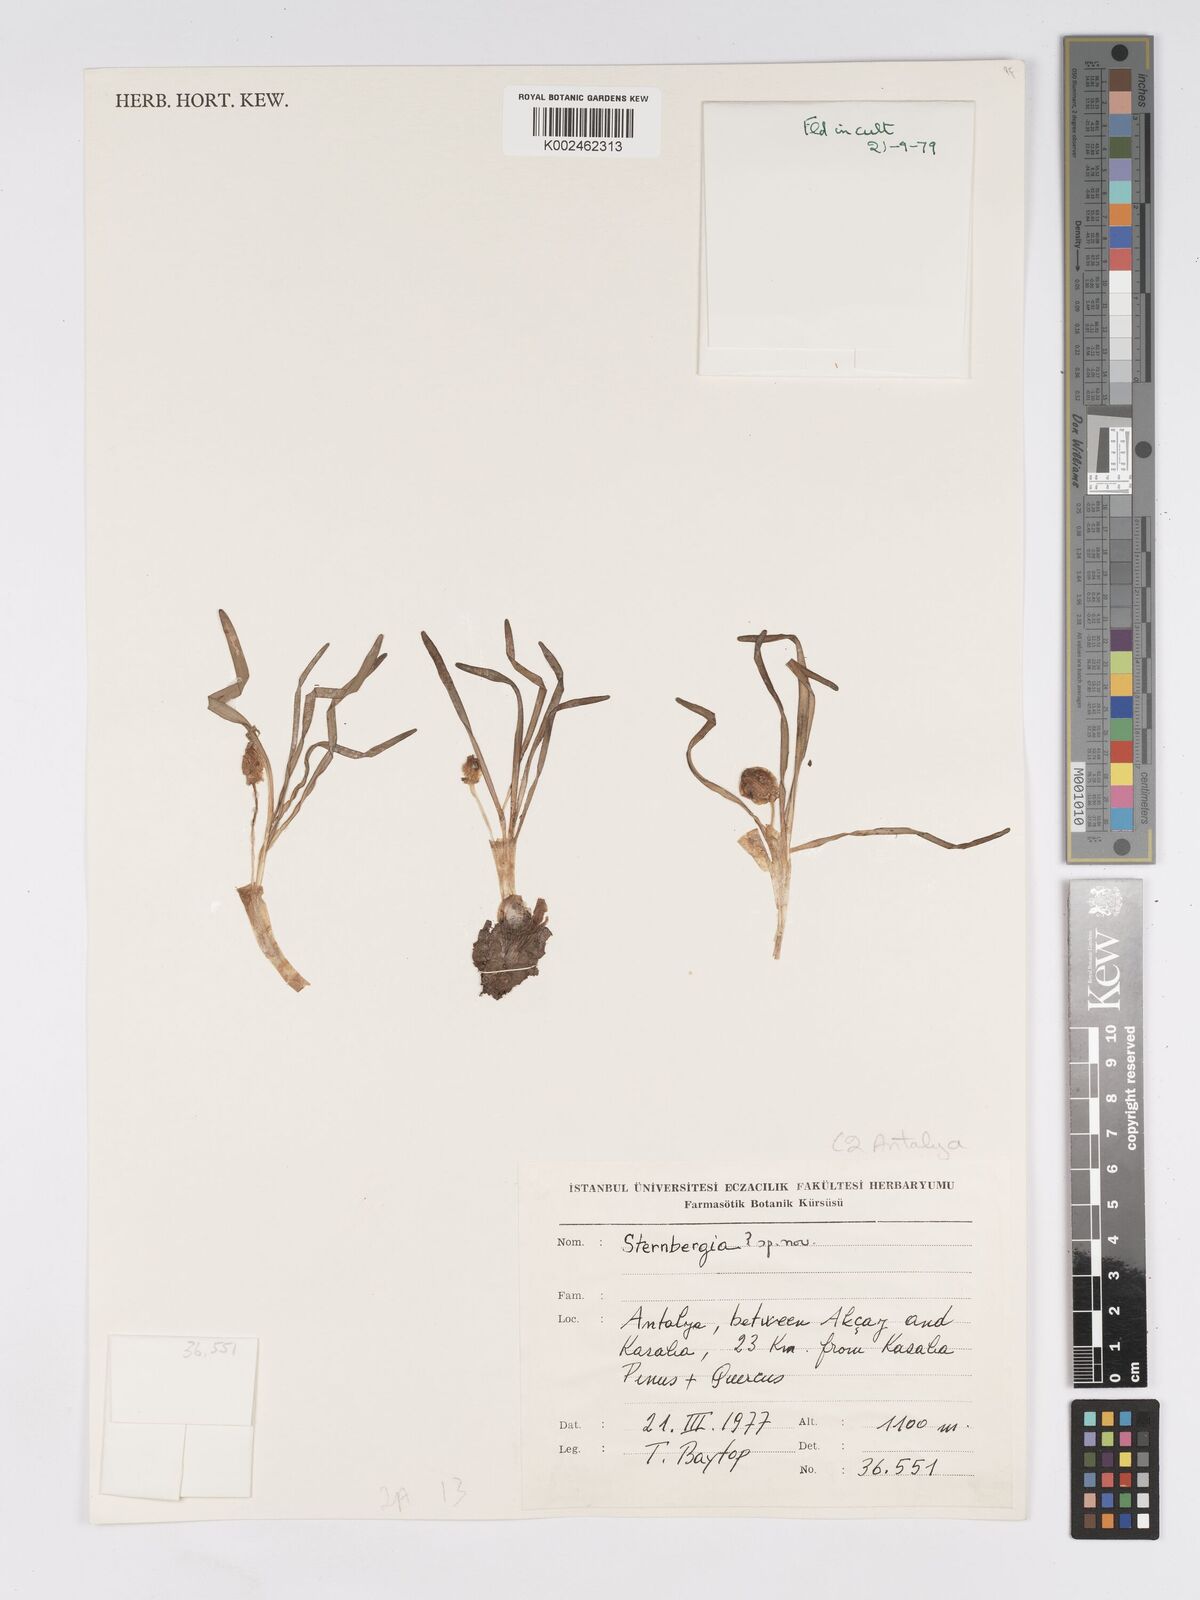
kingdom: Plantae
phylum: Tracheophyta
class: Liliopsida
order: Asparagales
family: Amaryllidaceae
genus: Sternbergia
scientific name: Sternbergia colchiciflora
